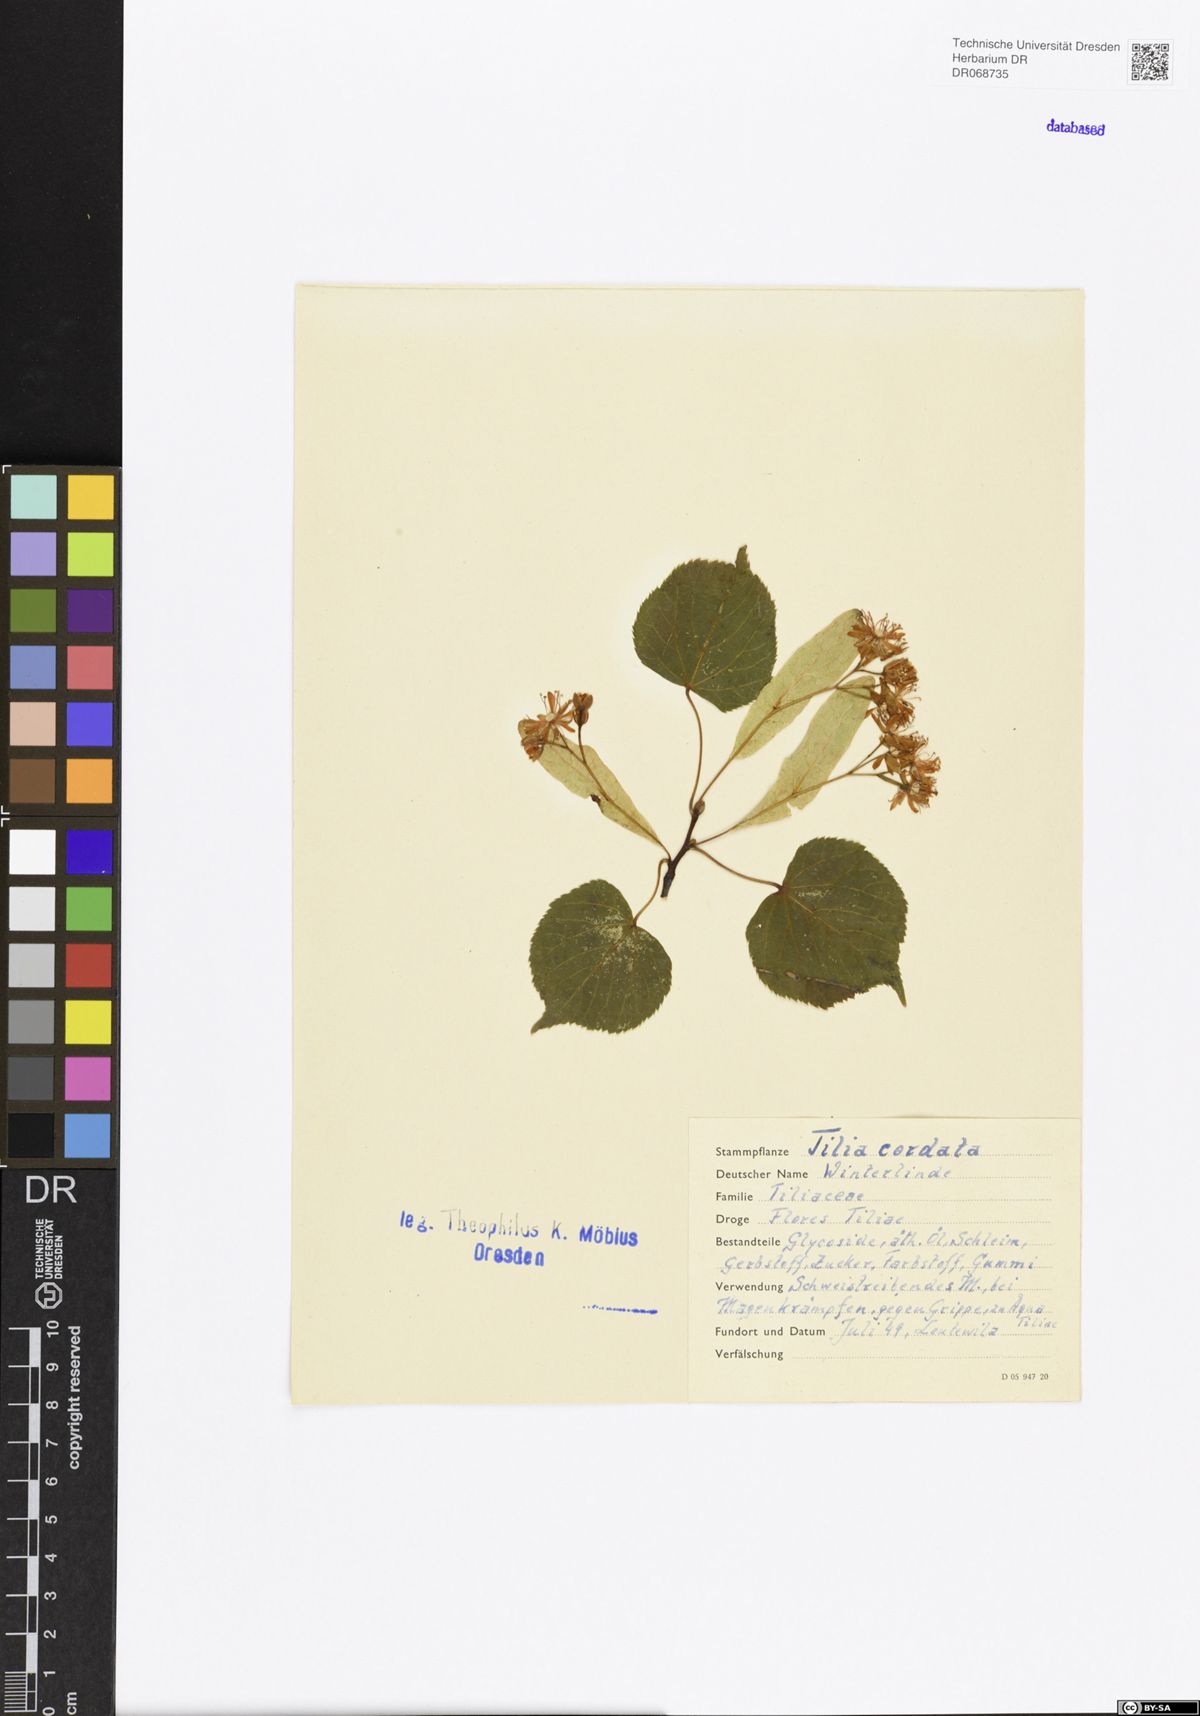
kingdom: Plantae
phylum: Tracheophyta
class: Magnoliopsida
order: Malvales
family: Malvaceae
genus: Tilia
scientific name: Tilia cordata
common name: Small-leaved lime
